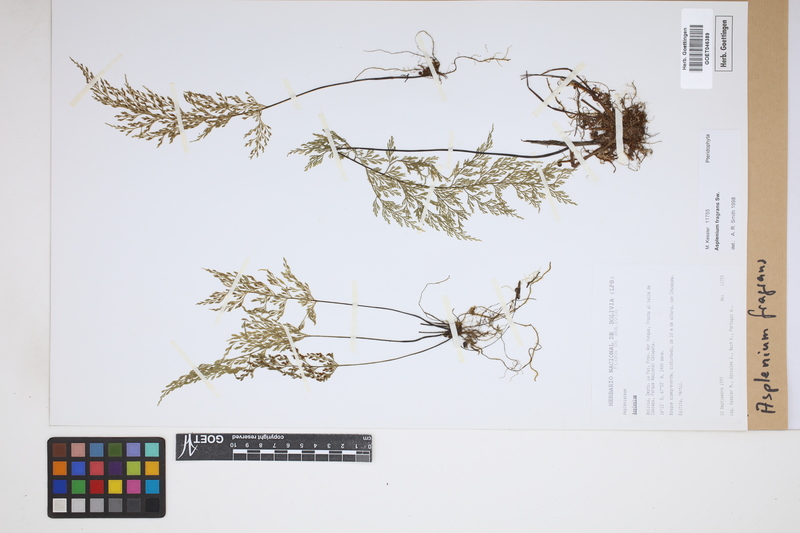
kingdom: Plantae
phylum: Tracheophyta
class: Polypodiopsida
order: Polypodiales
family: Aspleniaceae
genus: Asplenium
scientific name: Asplenium fragrans
